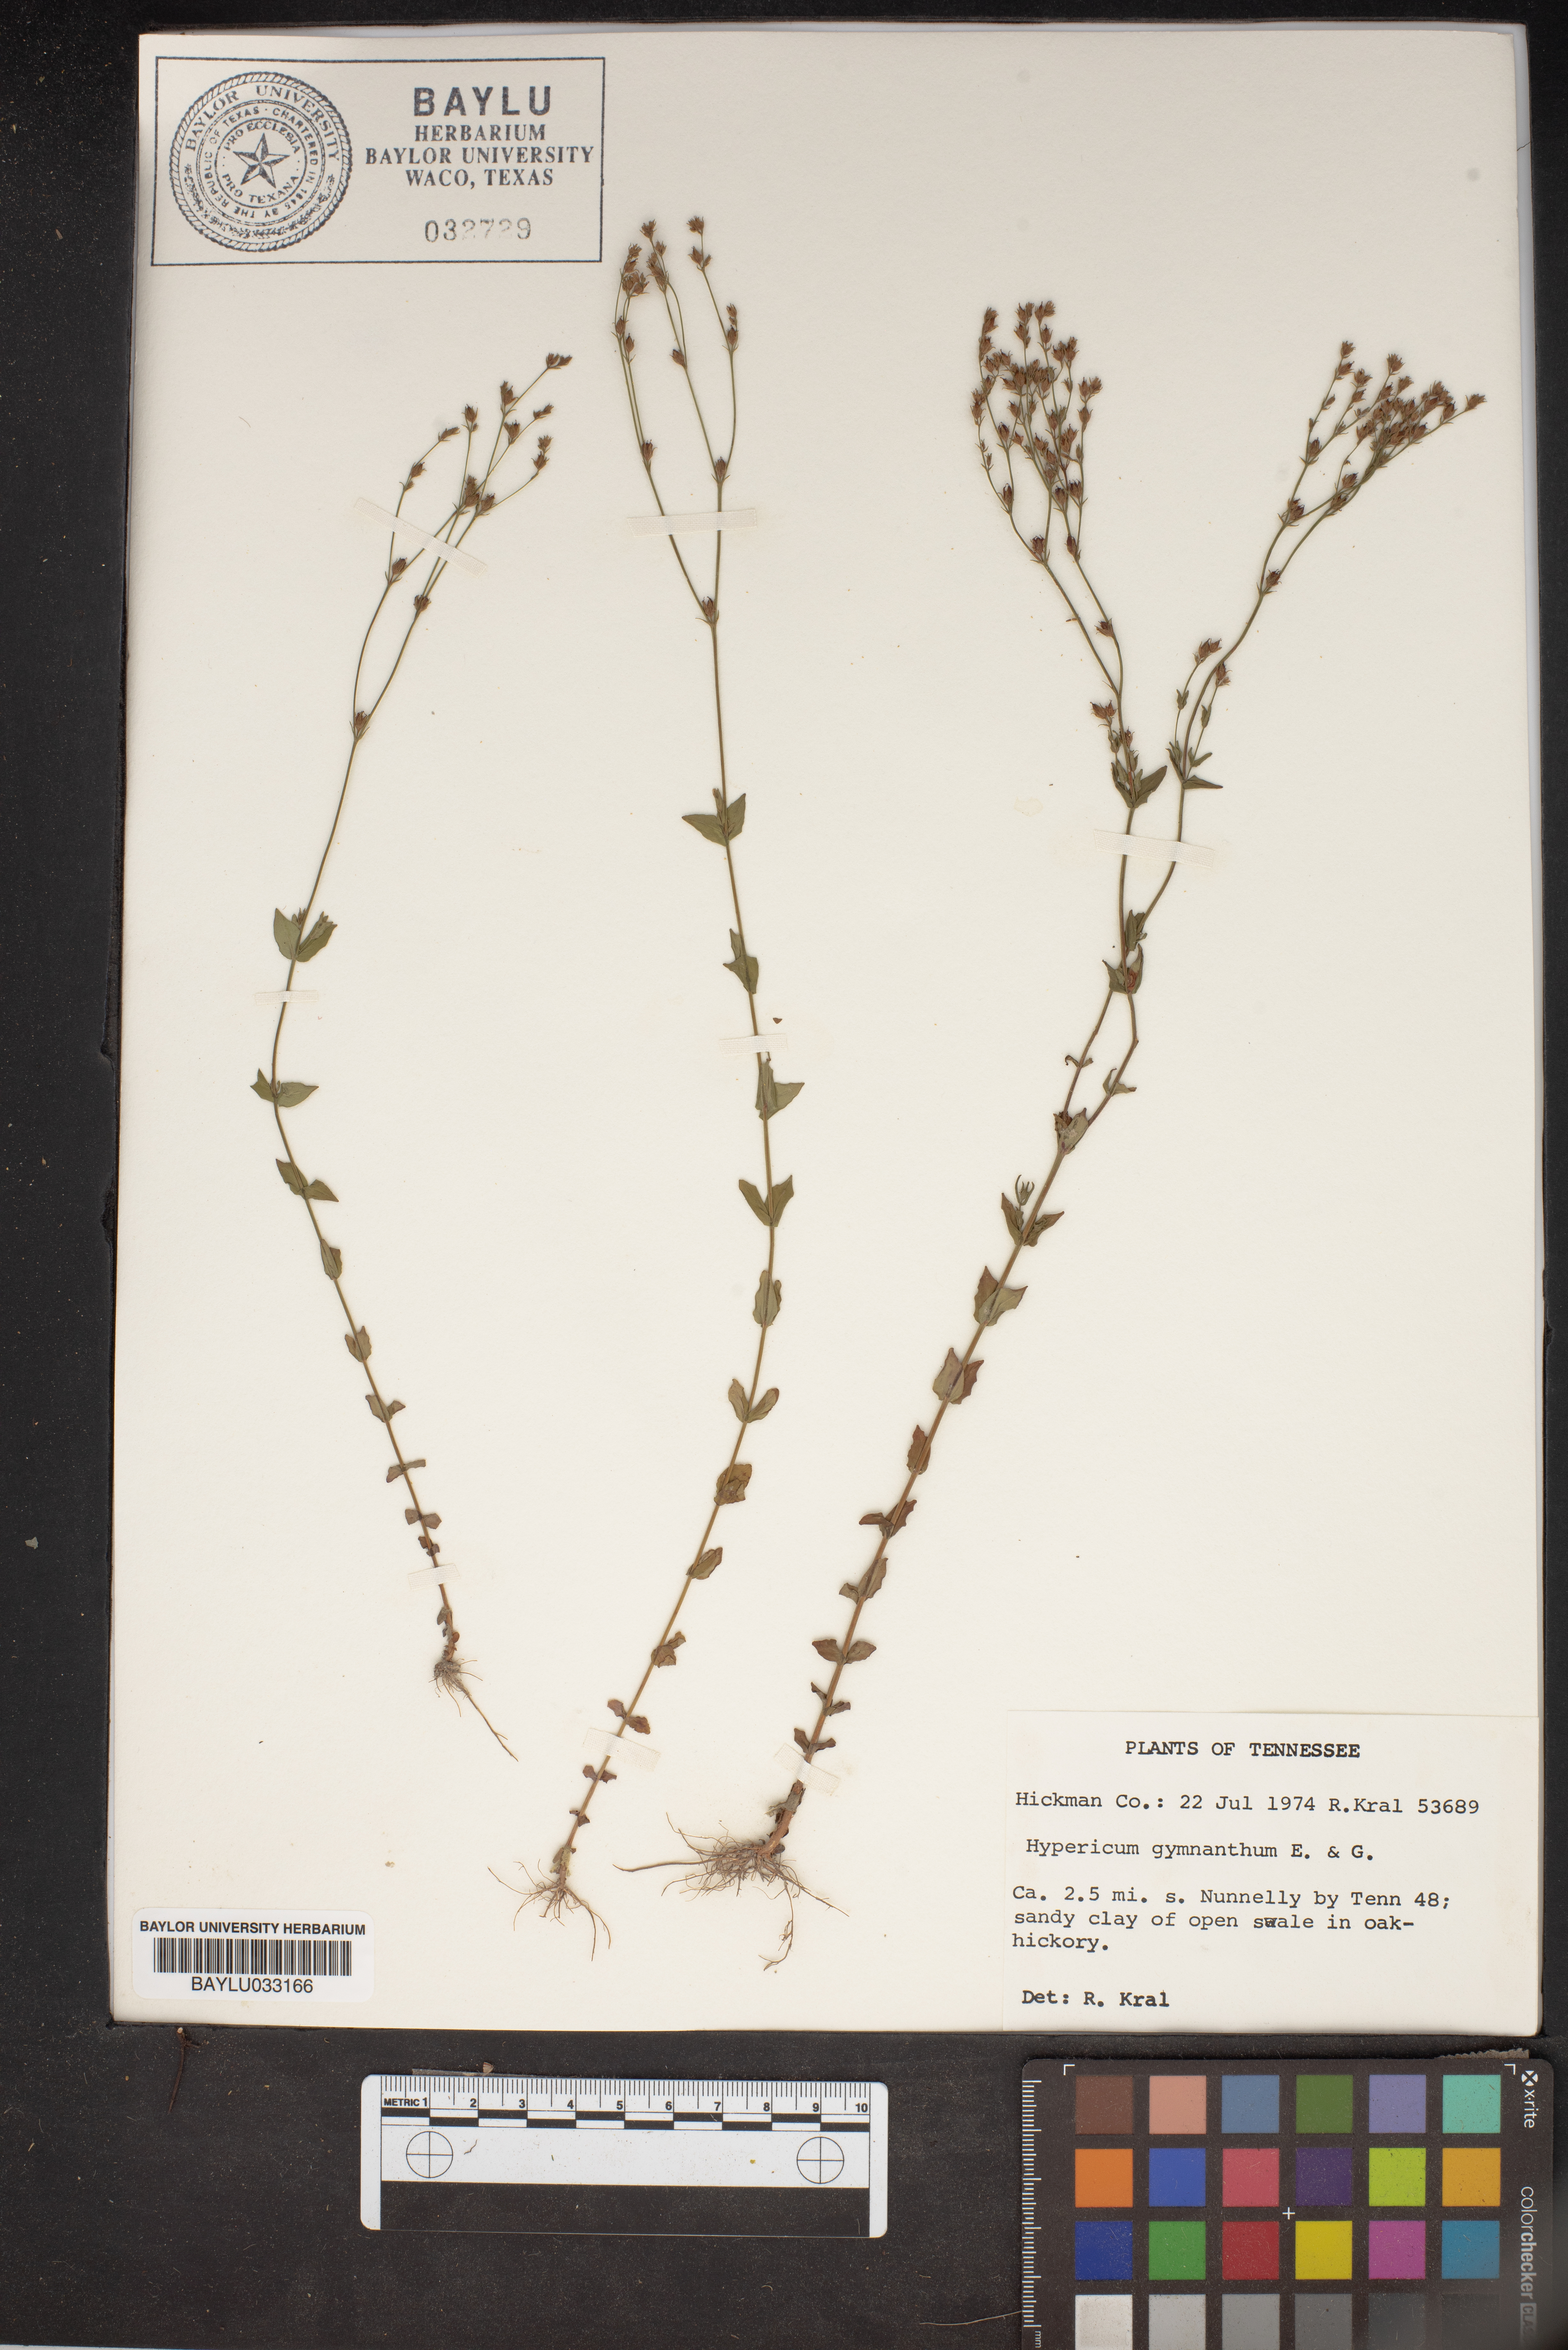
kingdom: Plantae
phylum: Tracheophyta
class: Magnoliopsida
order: Malpighiales
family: Hypericaceae
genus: Hypericum
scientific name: Hypericum gymnanthum
